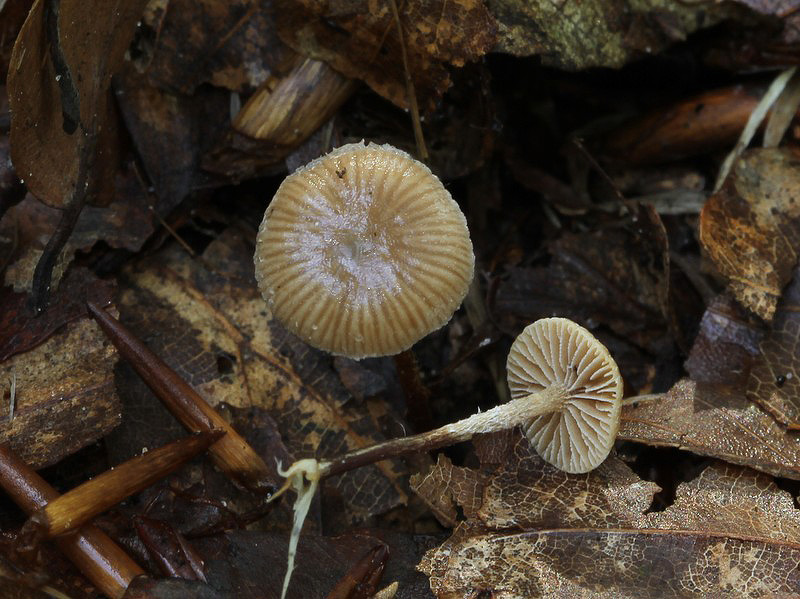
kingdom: Fungi
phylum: Basidiomycota
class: Agaricomycetes
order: Agaricales
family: Strophariaceae
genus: Deconica
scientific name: Deconica crobula
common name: træflis-stråhat
